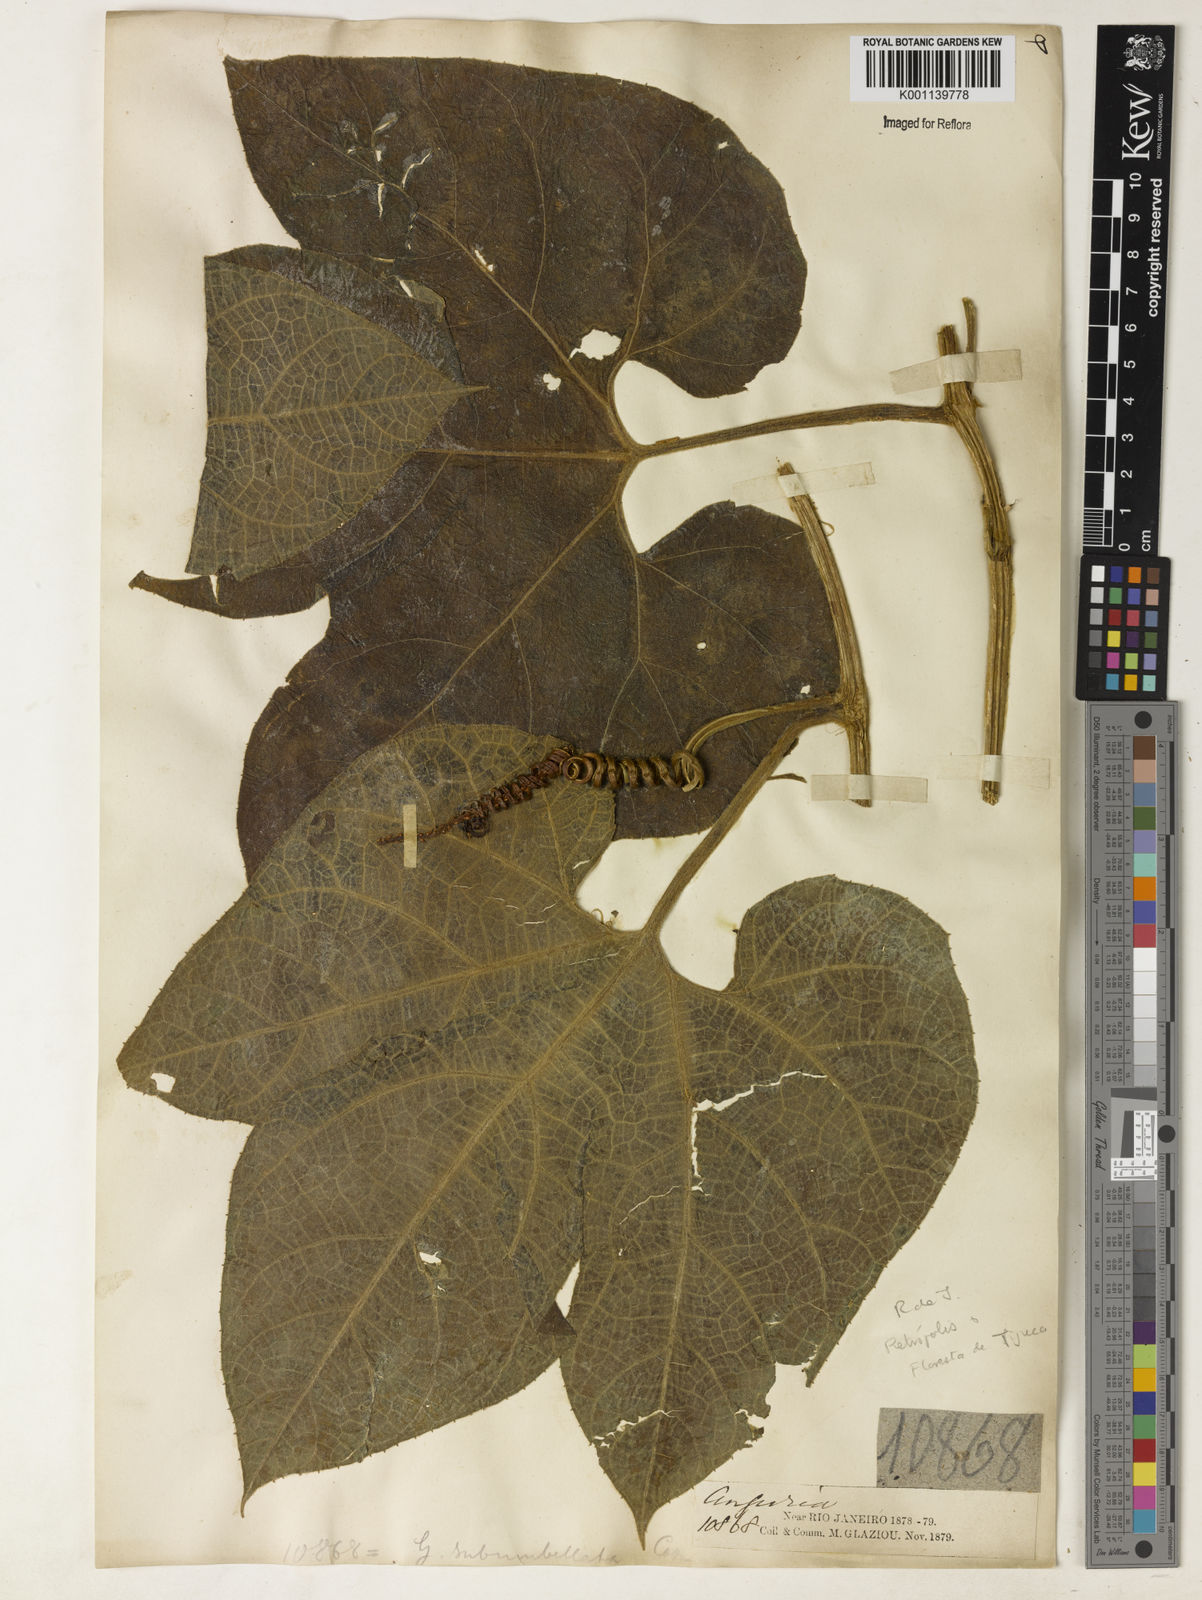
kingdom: Plantae
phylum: Tracheophyta
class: Magnoliopsida
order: Cucurbitales
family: Cucurbitaceae
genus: Gurania
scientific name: Gurania subumbellata
